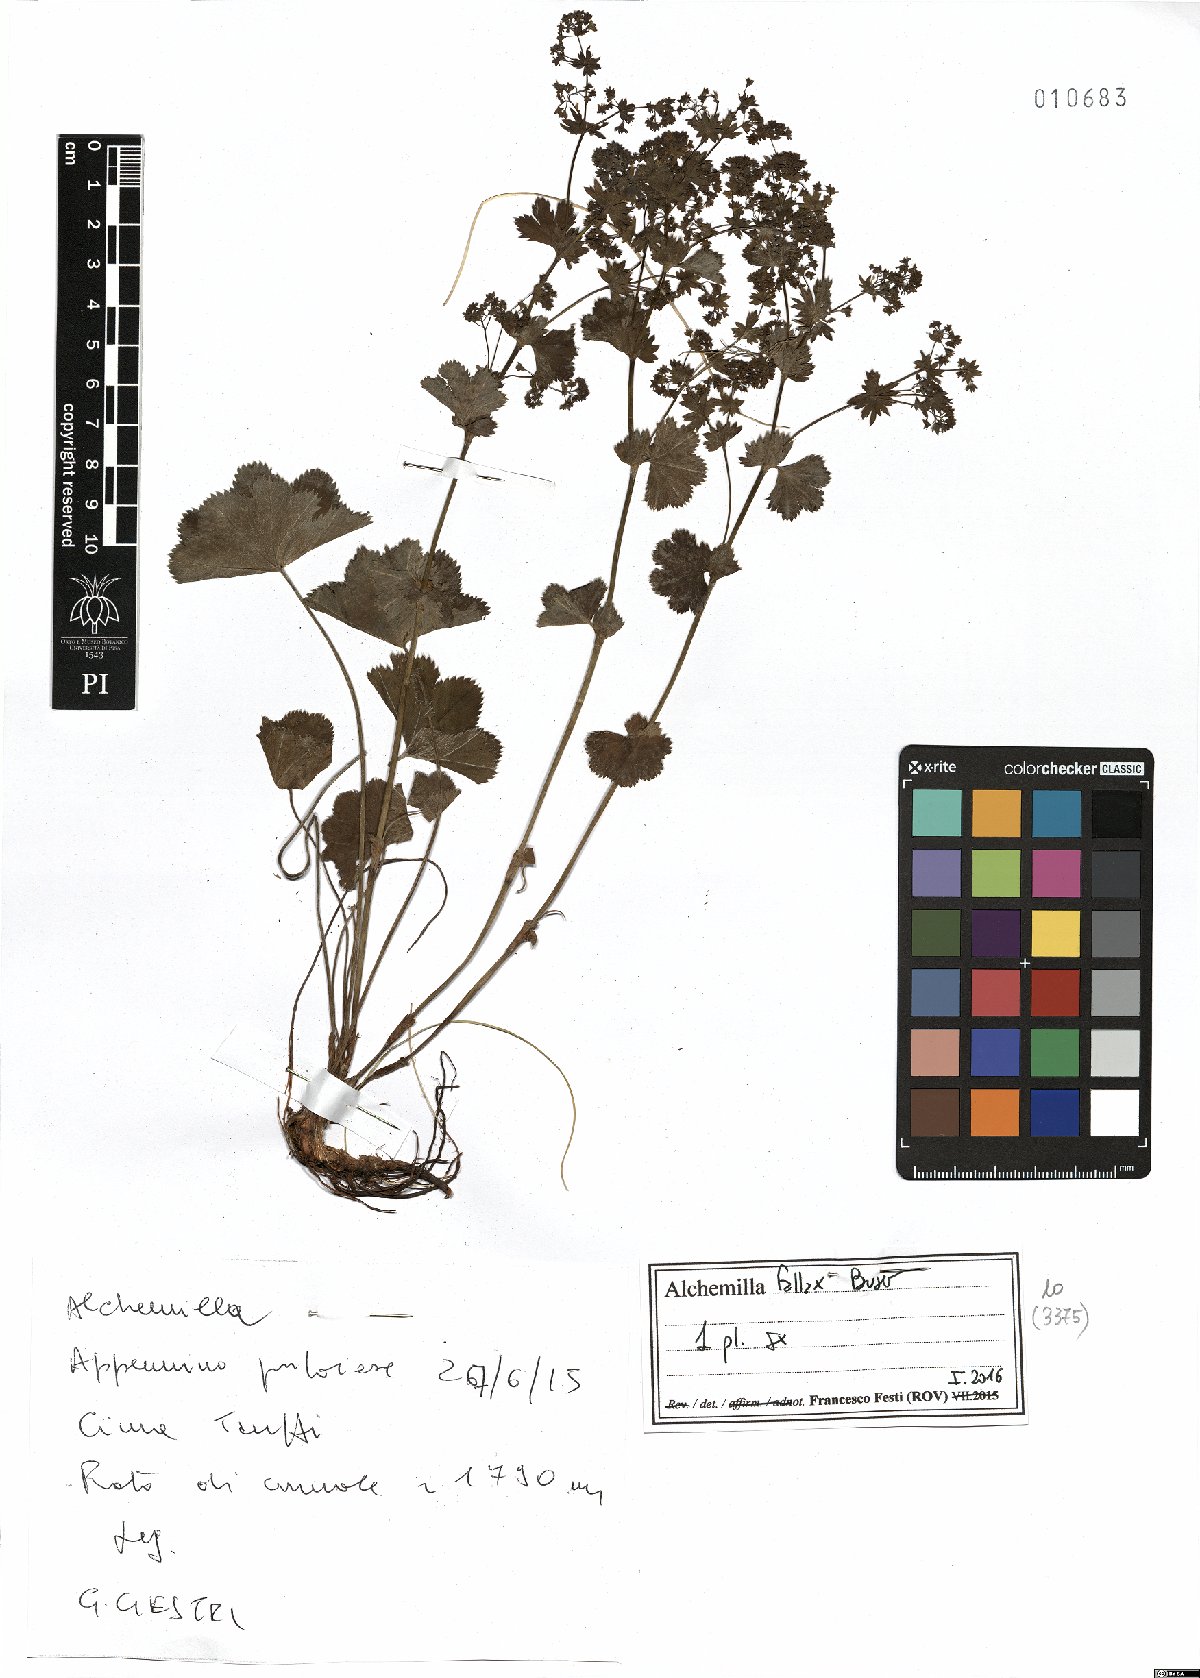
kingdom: Plantae
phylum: Tracheophyta
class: Magnoliopsida
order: Rosales
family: Rosaceae
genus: Alchemilla
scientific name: Alchemilla fallax
